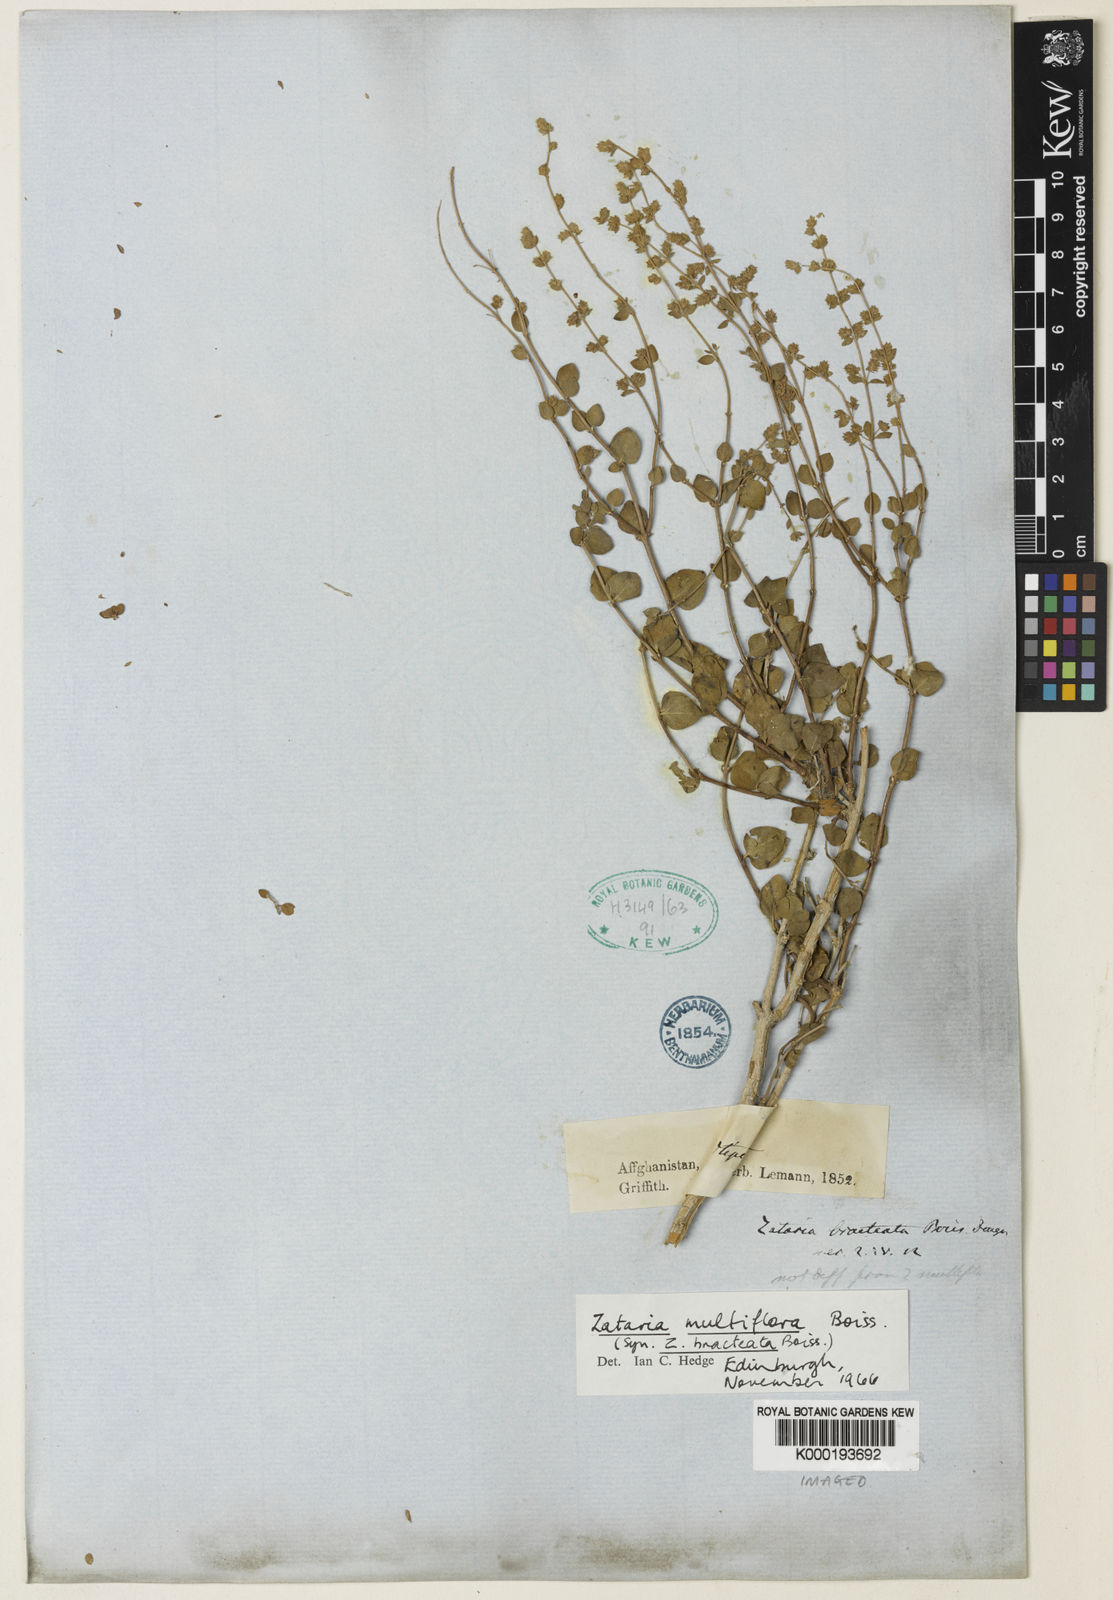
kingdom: Plantae
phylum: Tracheophyta
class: Magnoliopsida
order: Lamiales
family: Lamiaceae
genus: Zataria
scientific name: Zataria multiflora
